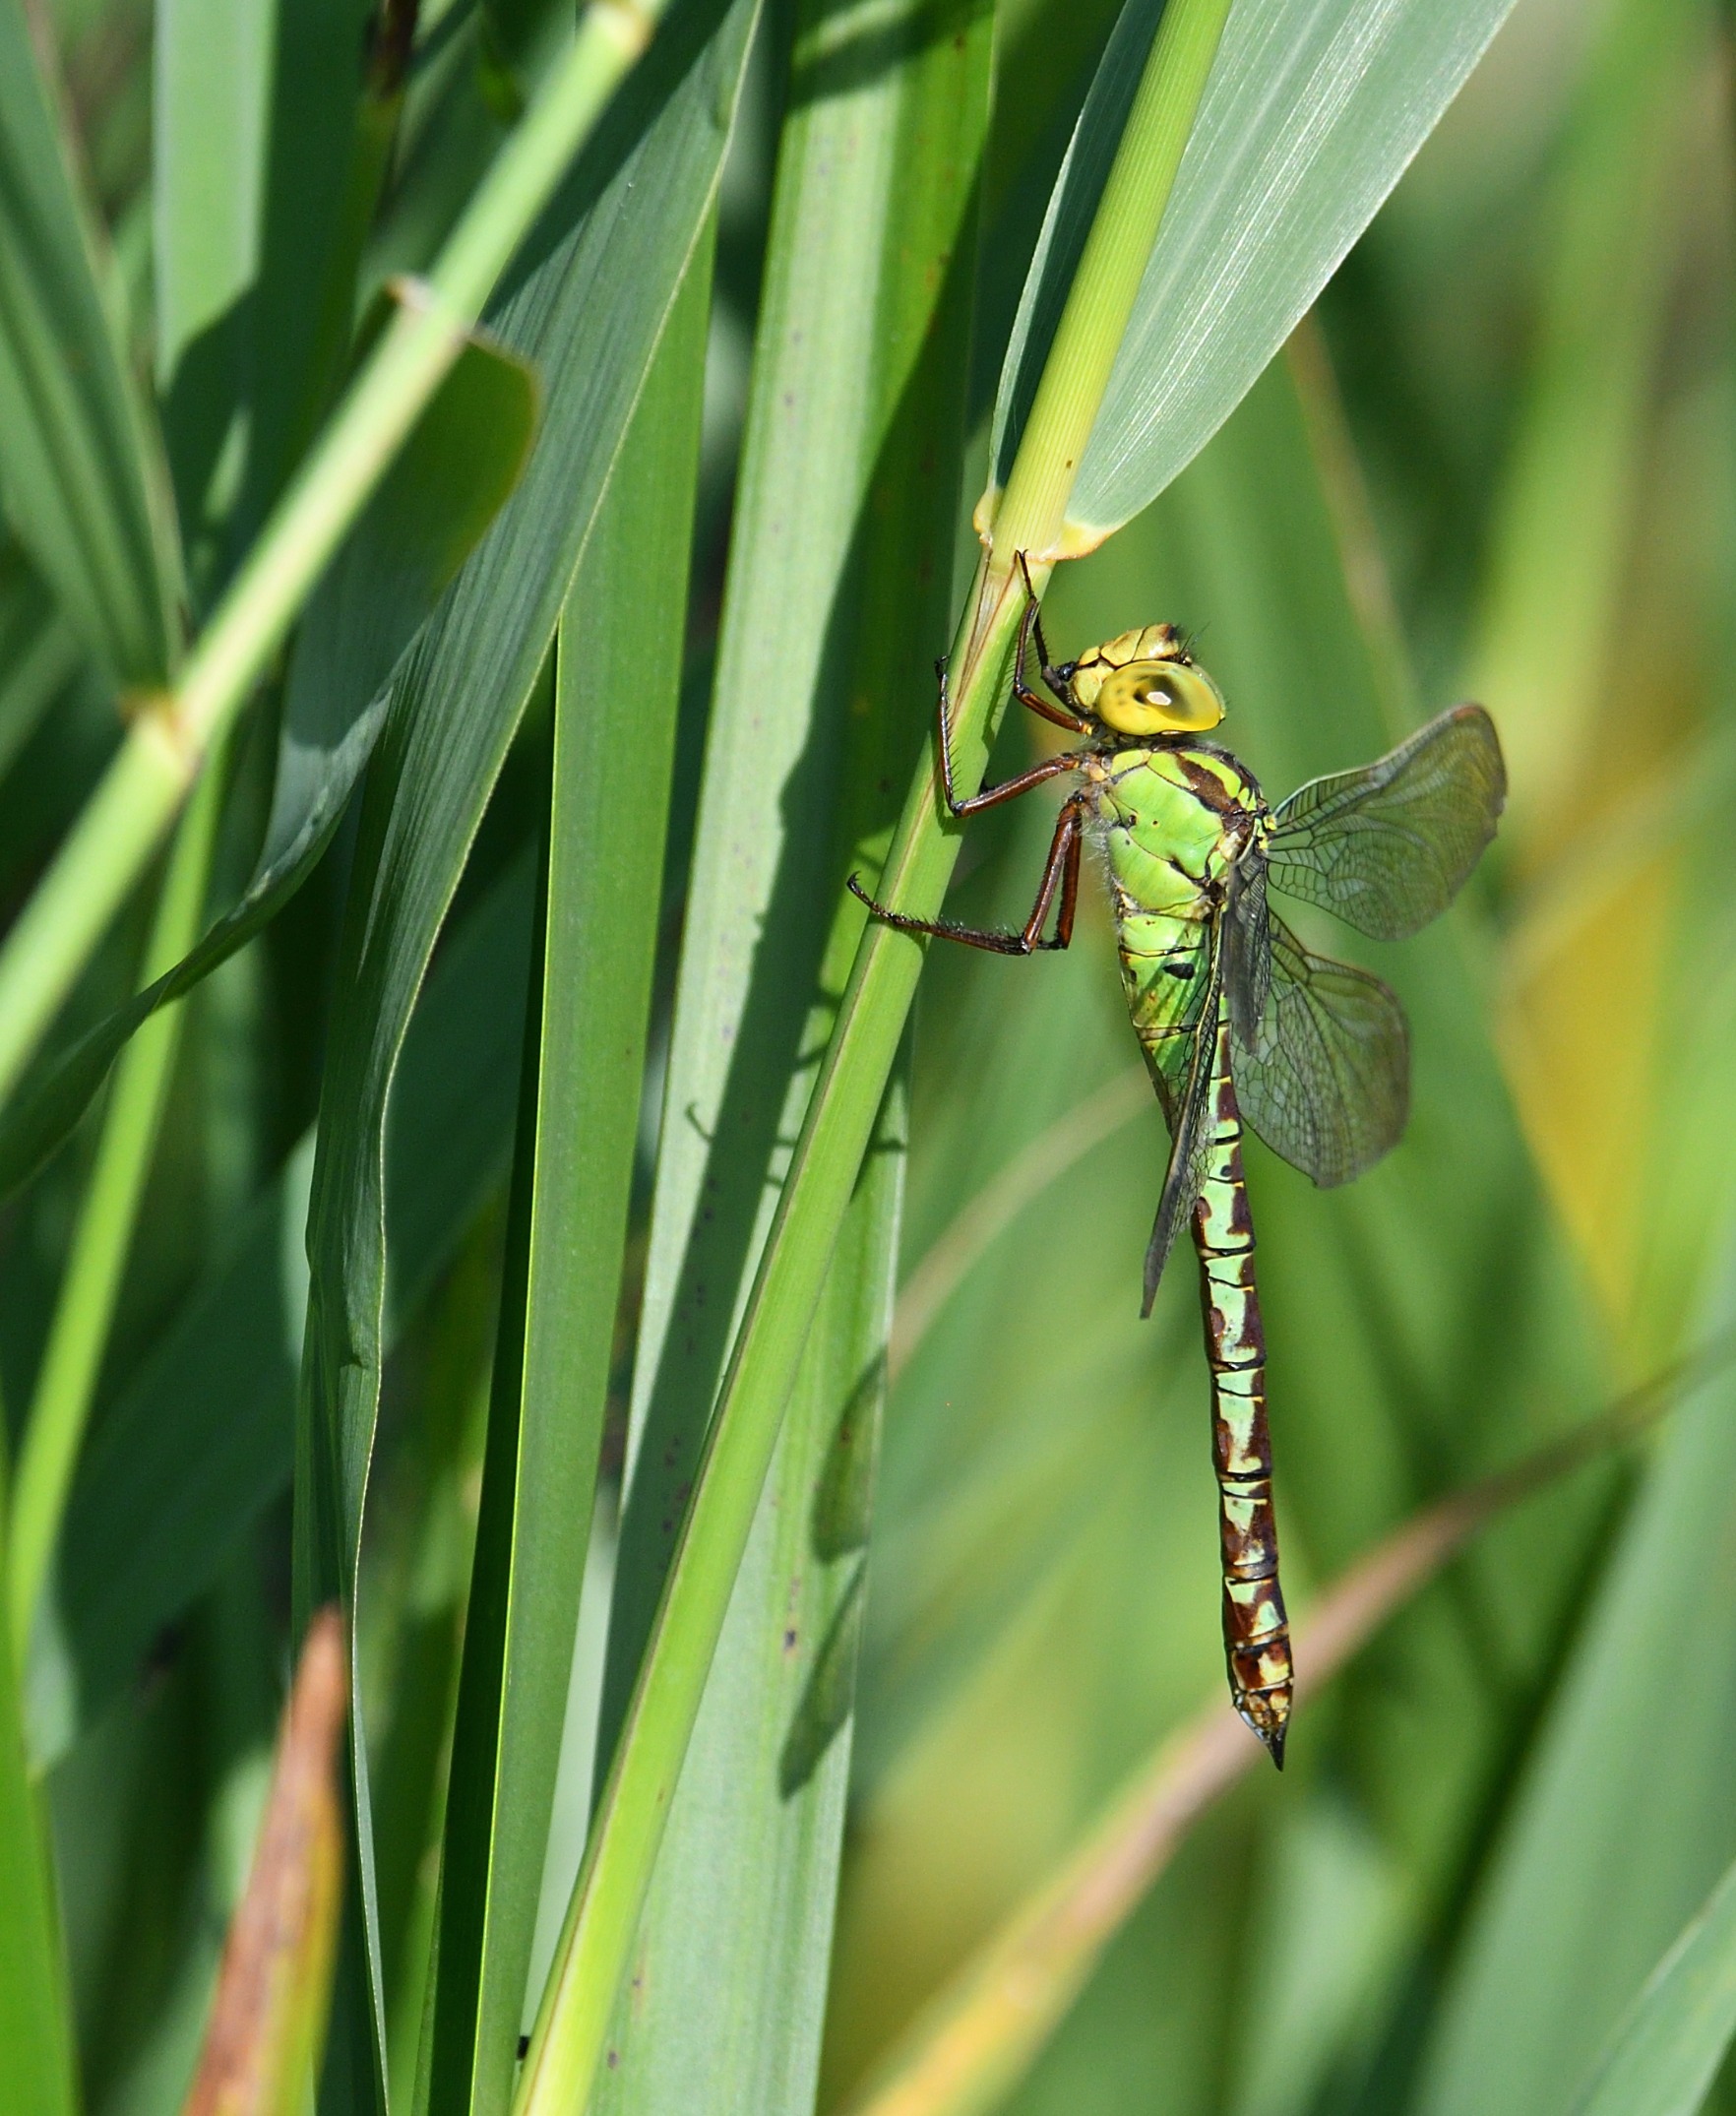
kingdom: Animalia
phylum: Arthropoda
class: Insecta
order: Odonata
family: Aeshnidae
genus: Aeshna
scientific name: Aeshna viridis
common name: Grøn mosaikguldsmed
